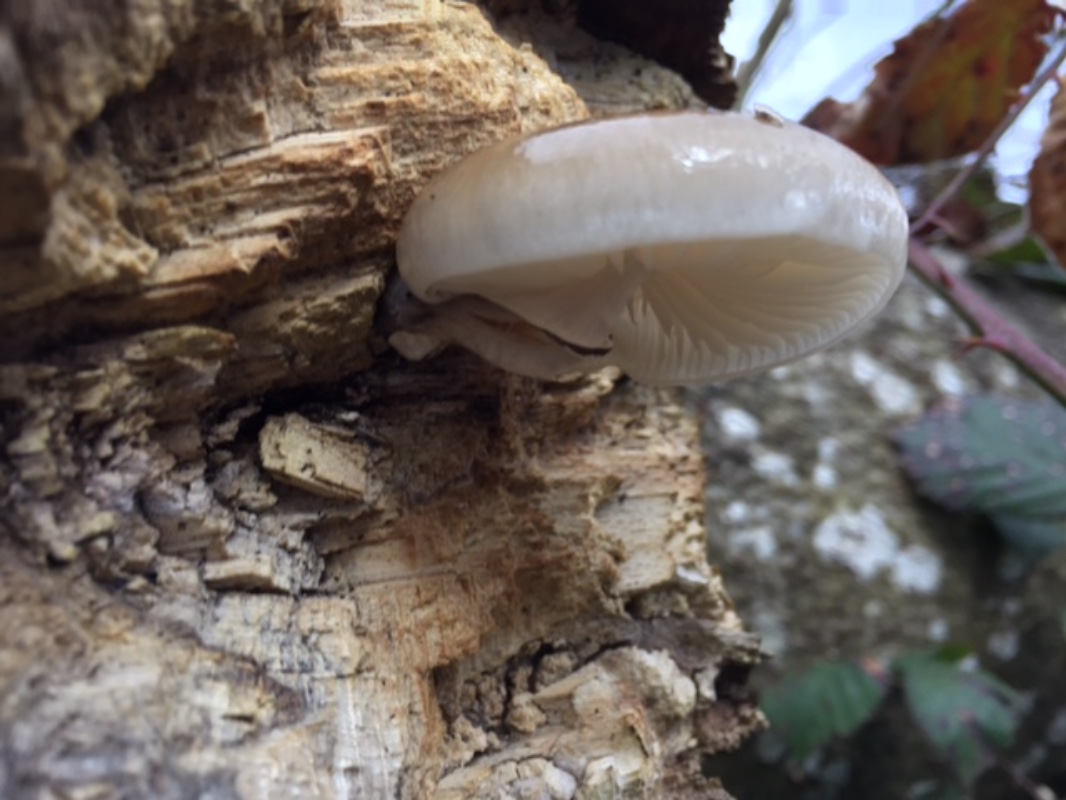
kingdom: Fungi
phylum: Basidiomycota
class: Agaricomycetes
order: Agaricales
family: Physalacriaceae
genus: Mucidula
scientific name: Mucidula mucida
